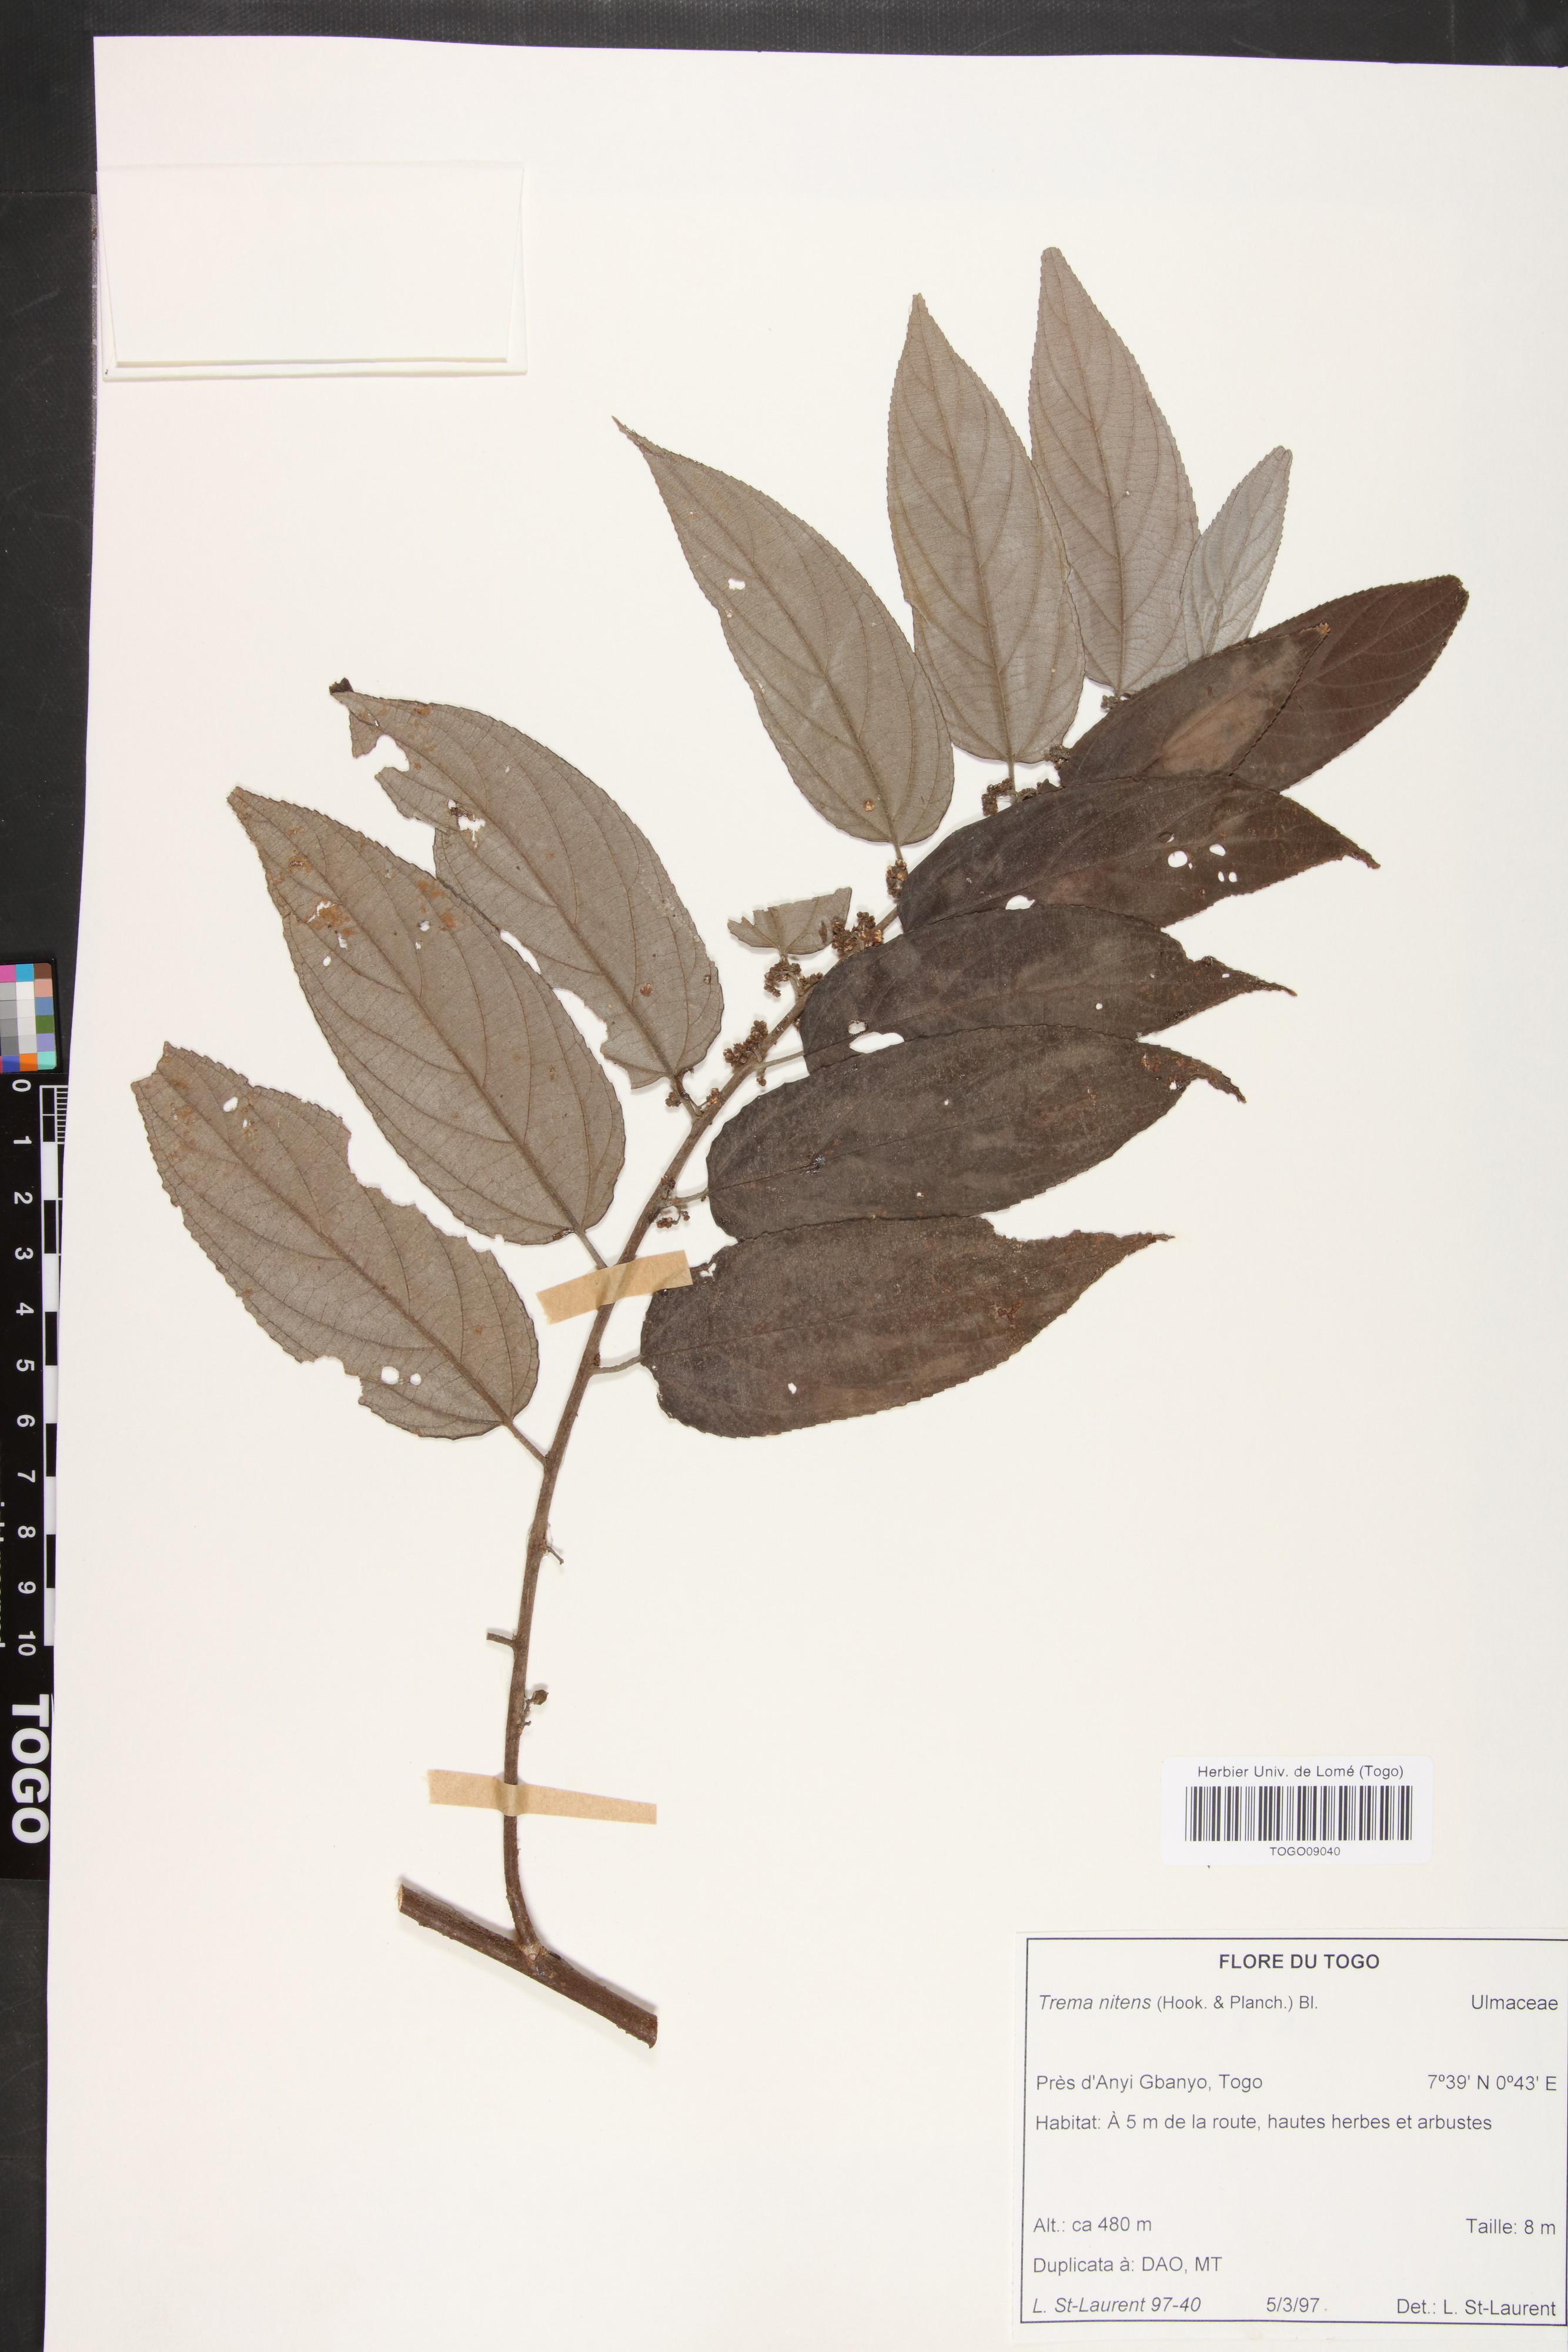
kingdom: Plantae
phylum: Tracheophyta
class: Magnoliopsida
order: Rosales
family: Cannabaceae
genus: Trema
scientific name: Trema orientale
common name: Indian charcoal tree
